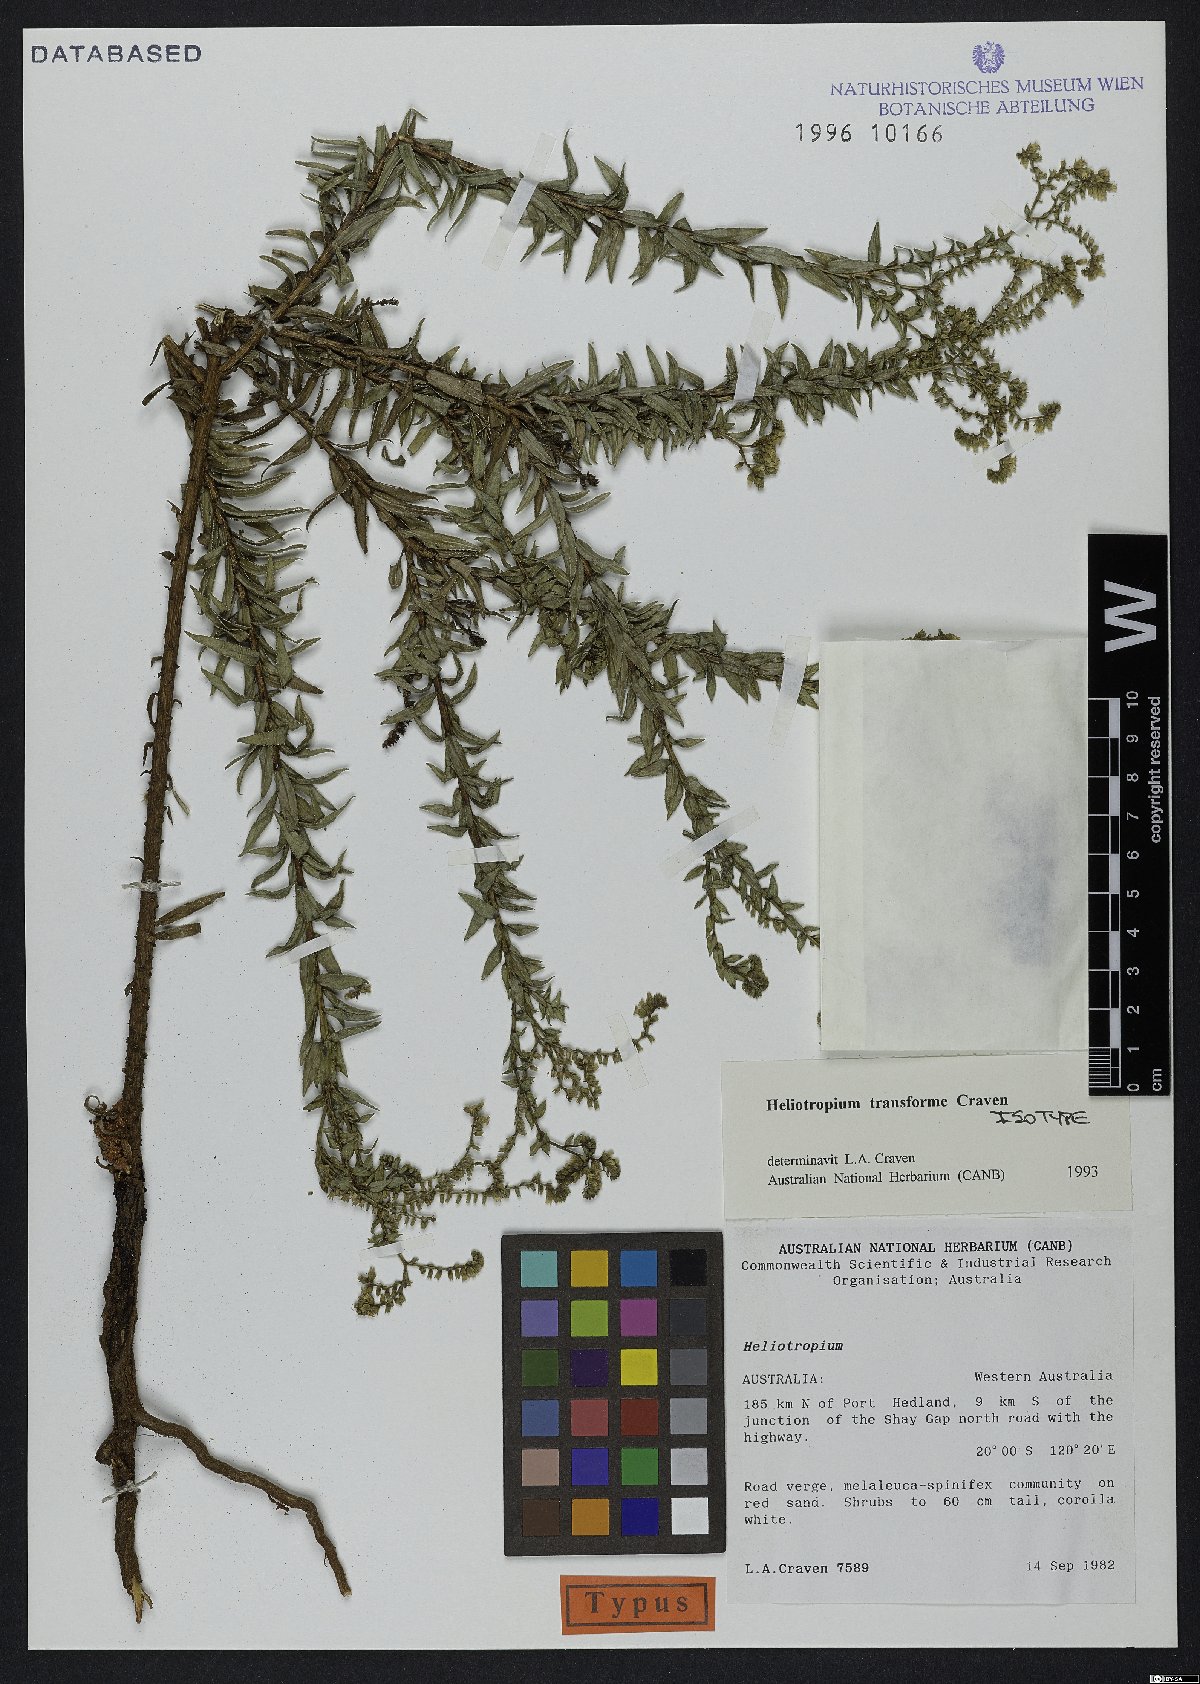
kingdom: Plantae
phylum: Tracheophyta
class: Magnoliopsida
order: Boraginales
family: Heliotropiaceae
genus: Euploca
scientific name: Euploca transformis
